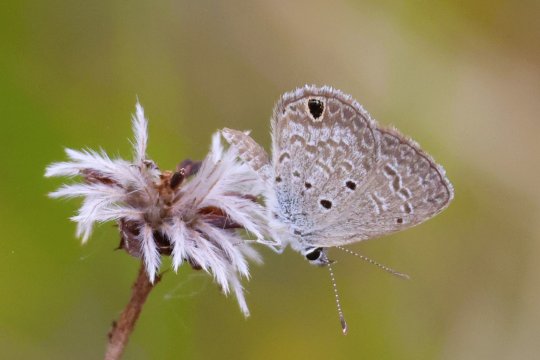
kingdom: Animalia
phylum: Arthropoda
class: Insecta
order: Lepidoptera
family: Lycaenidae
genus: Hemiargus
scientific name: Hemiargus ceraunus
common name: Ceraunus Blue
